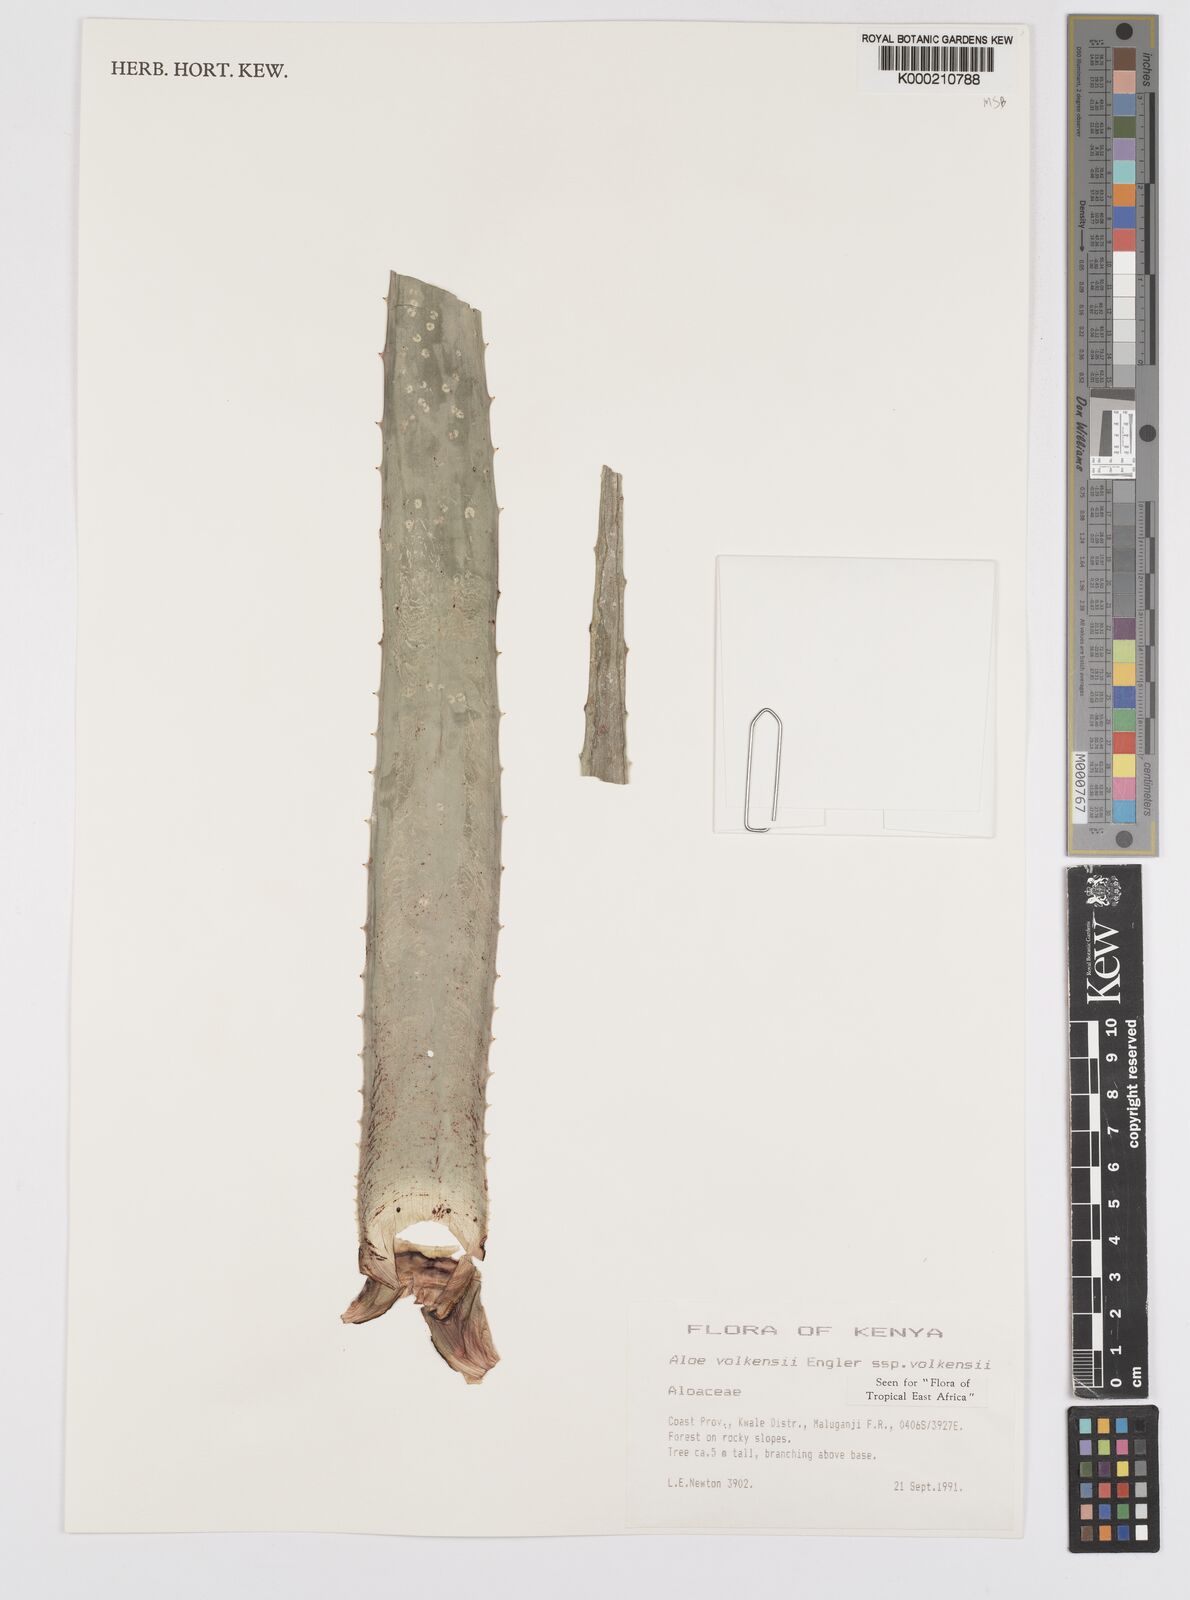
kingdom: Plantae
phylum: Tracheophyta
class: Liliopsida
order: Asparagales
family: Asphodelaceae
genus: Aloe
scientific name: Aloe volkensii
